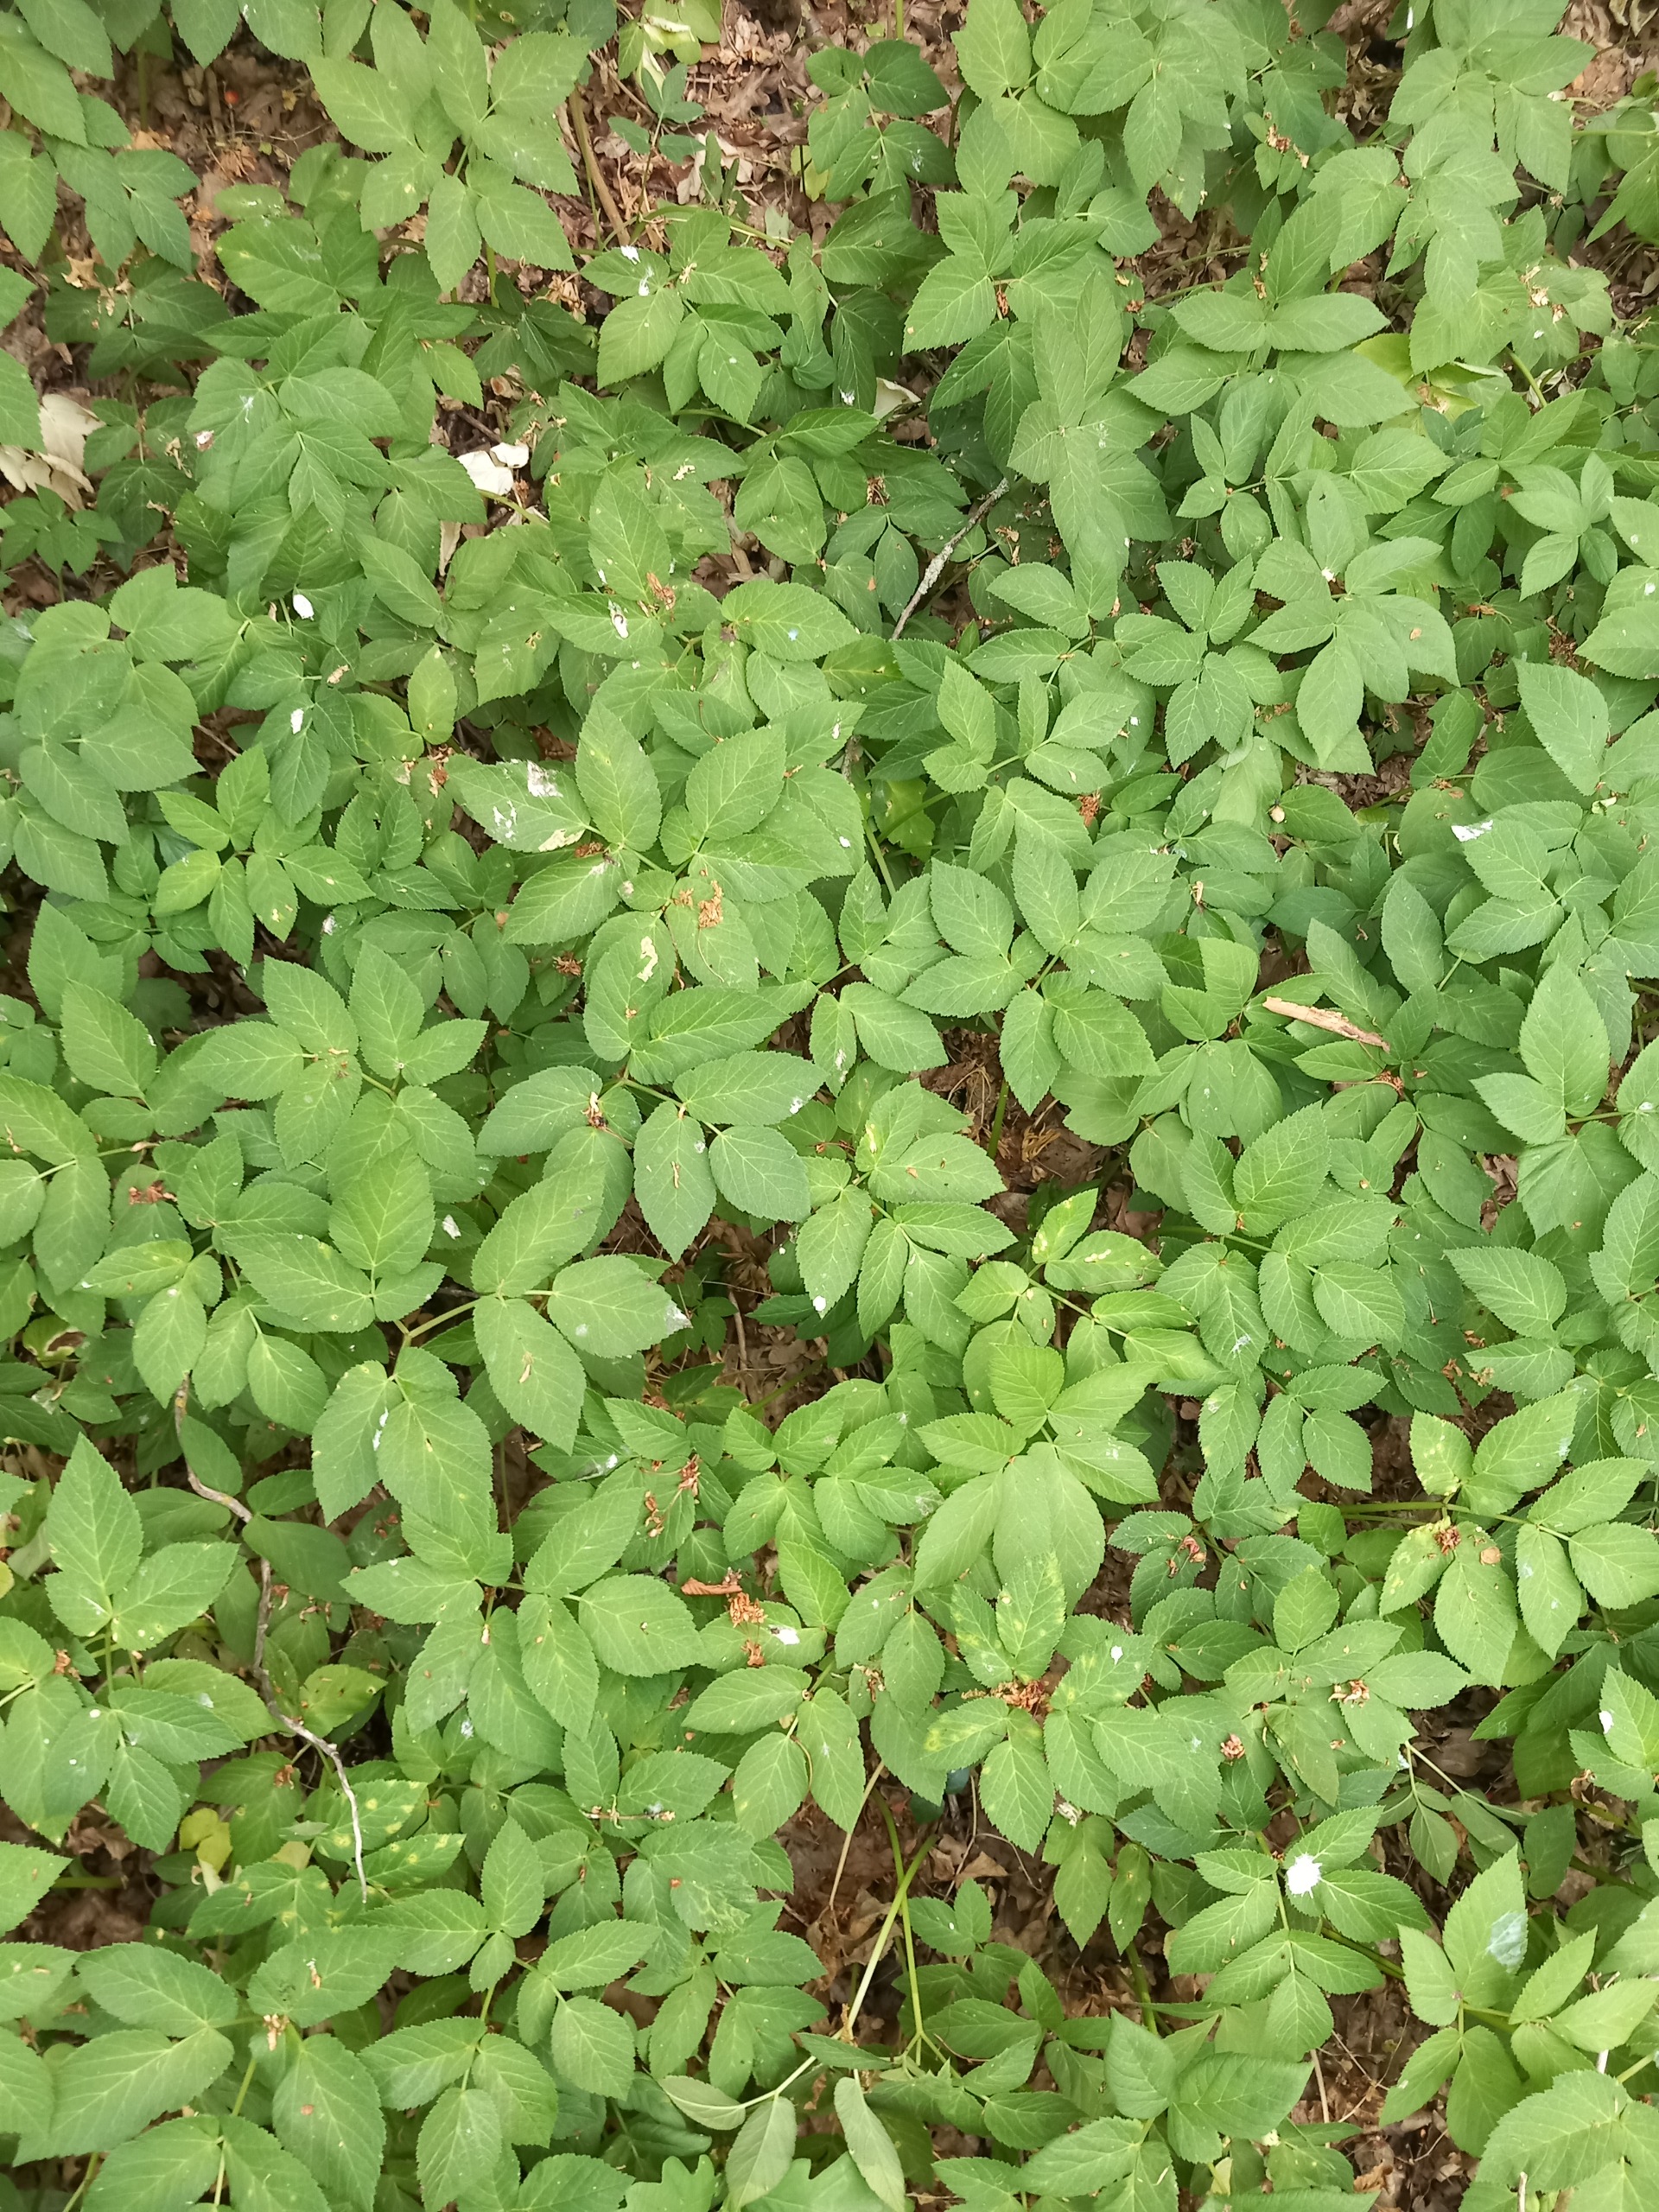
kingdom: Plantae
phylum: Tracheophyta
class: Magnoliopsida
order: Apiales
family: Apiaceae
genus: Aegopodium
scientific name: Aegopodium podagraria
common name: Skvalderkål
